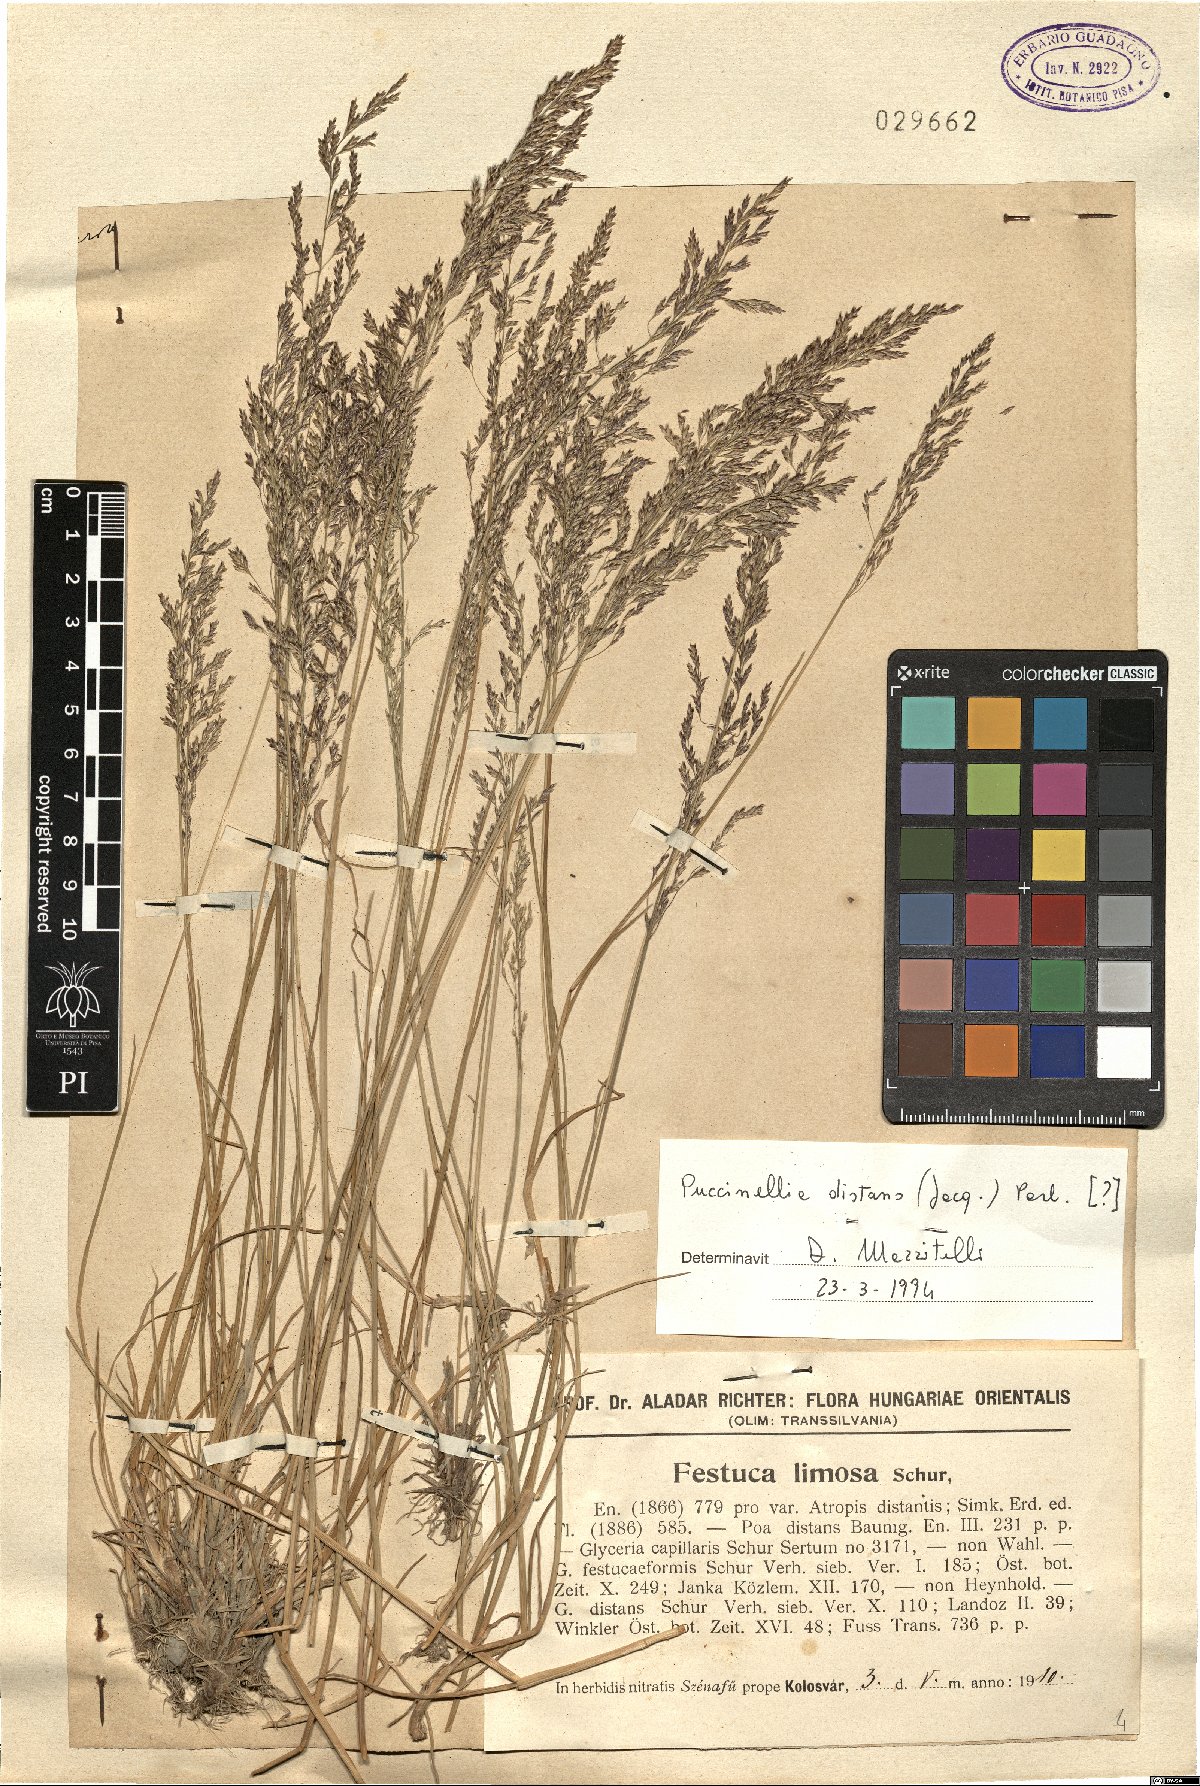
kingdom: Plantae
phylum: Tracheophyta
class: Liliopsida
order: Poales
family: Poaceae
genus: Puccinellia
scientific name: Puccinellia distans
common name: Weeping alkaligrass
